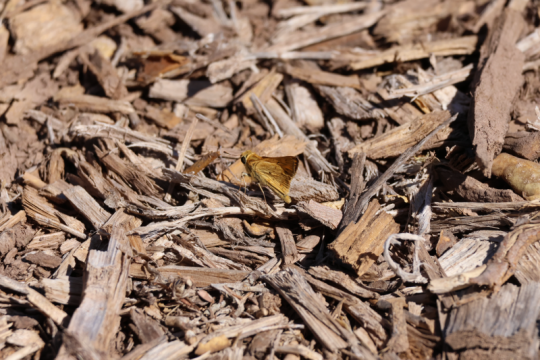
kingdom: Animalia
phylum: Arthropoda
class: Insecta
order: Lepidoptera
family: Hesperiidae
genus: Hylephila
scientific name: Hylephila phyleus
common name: Fiery Skipper
